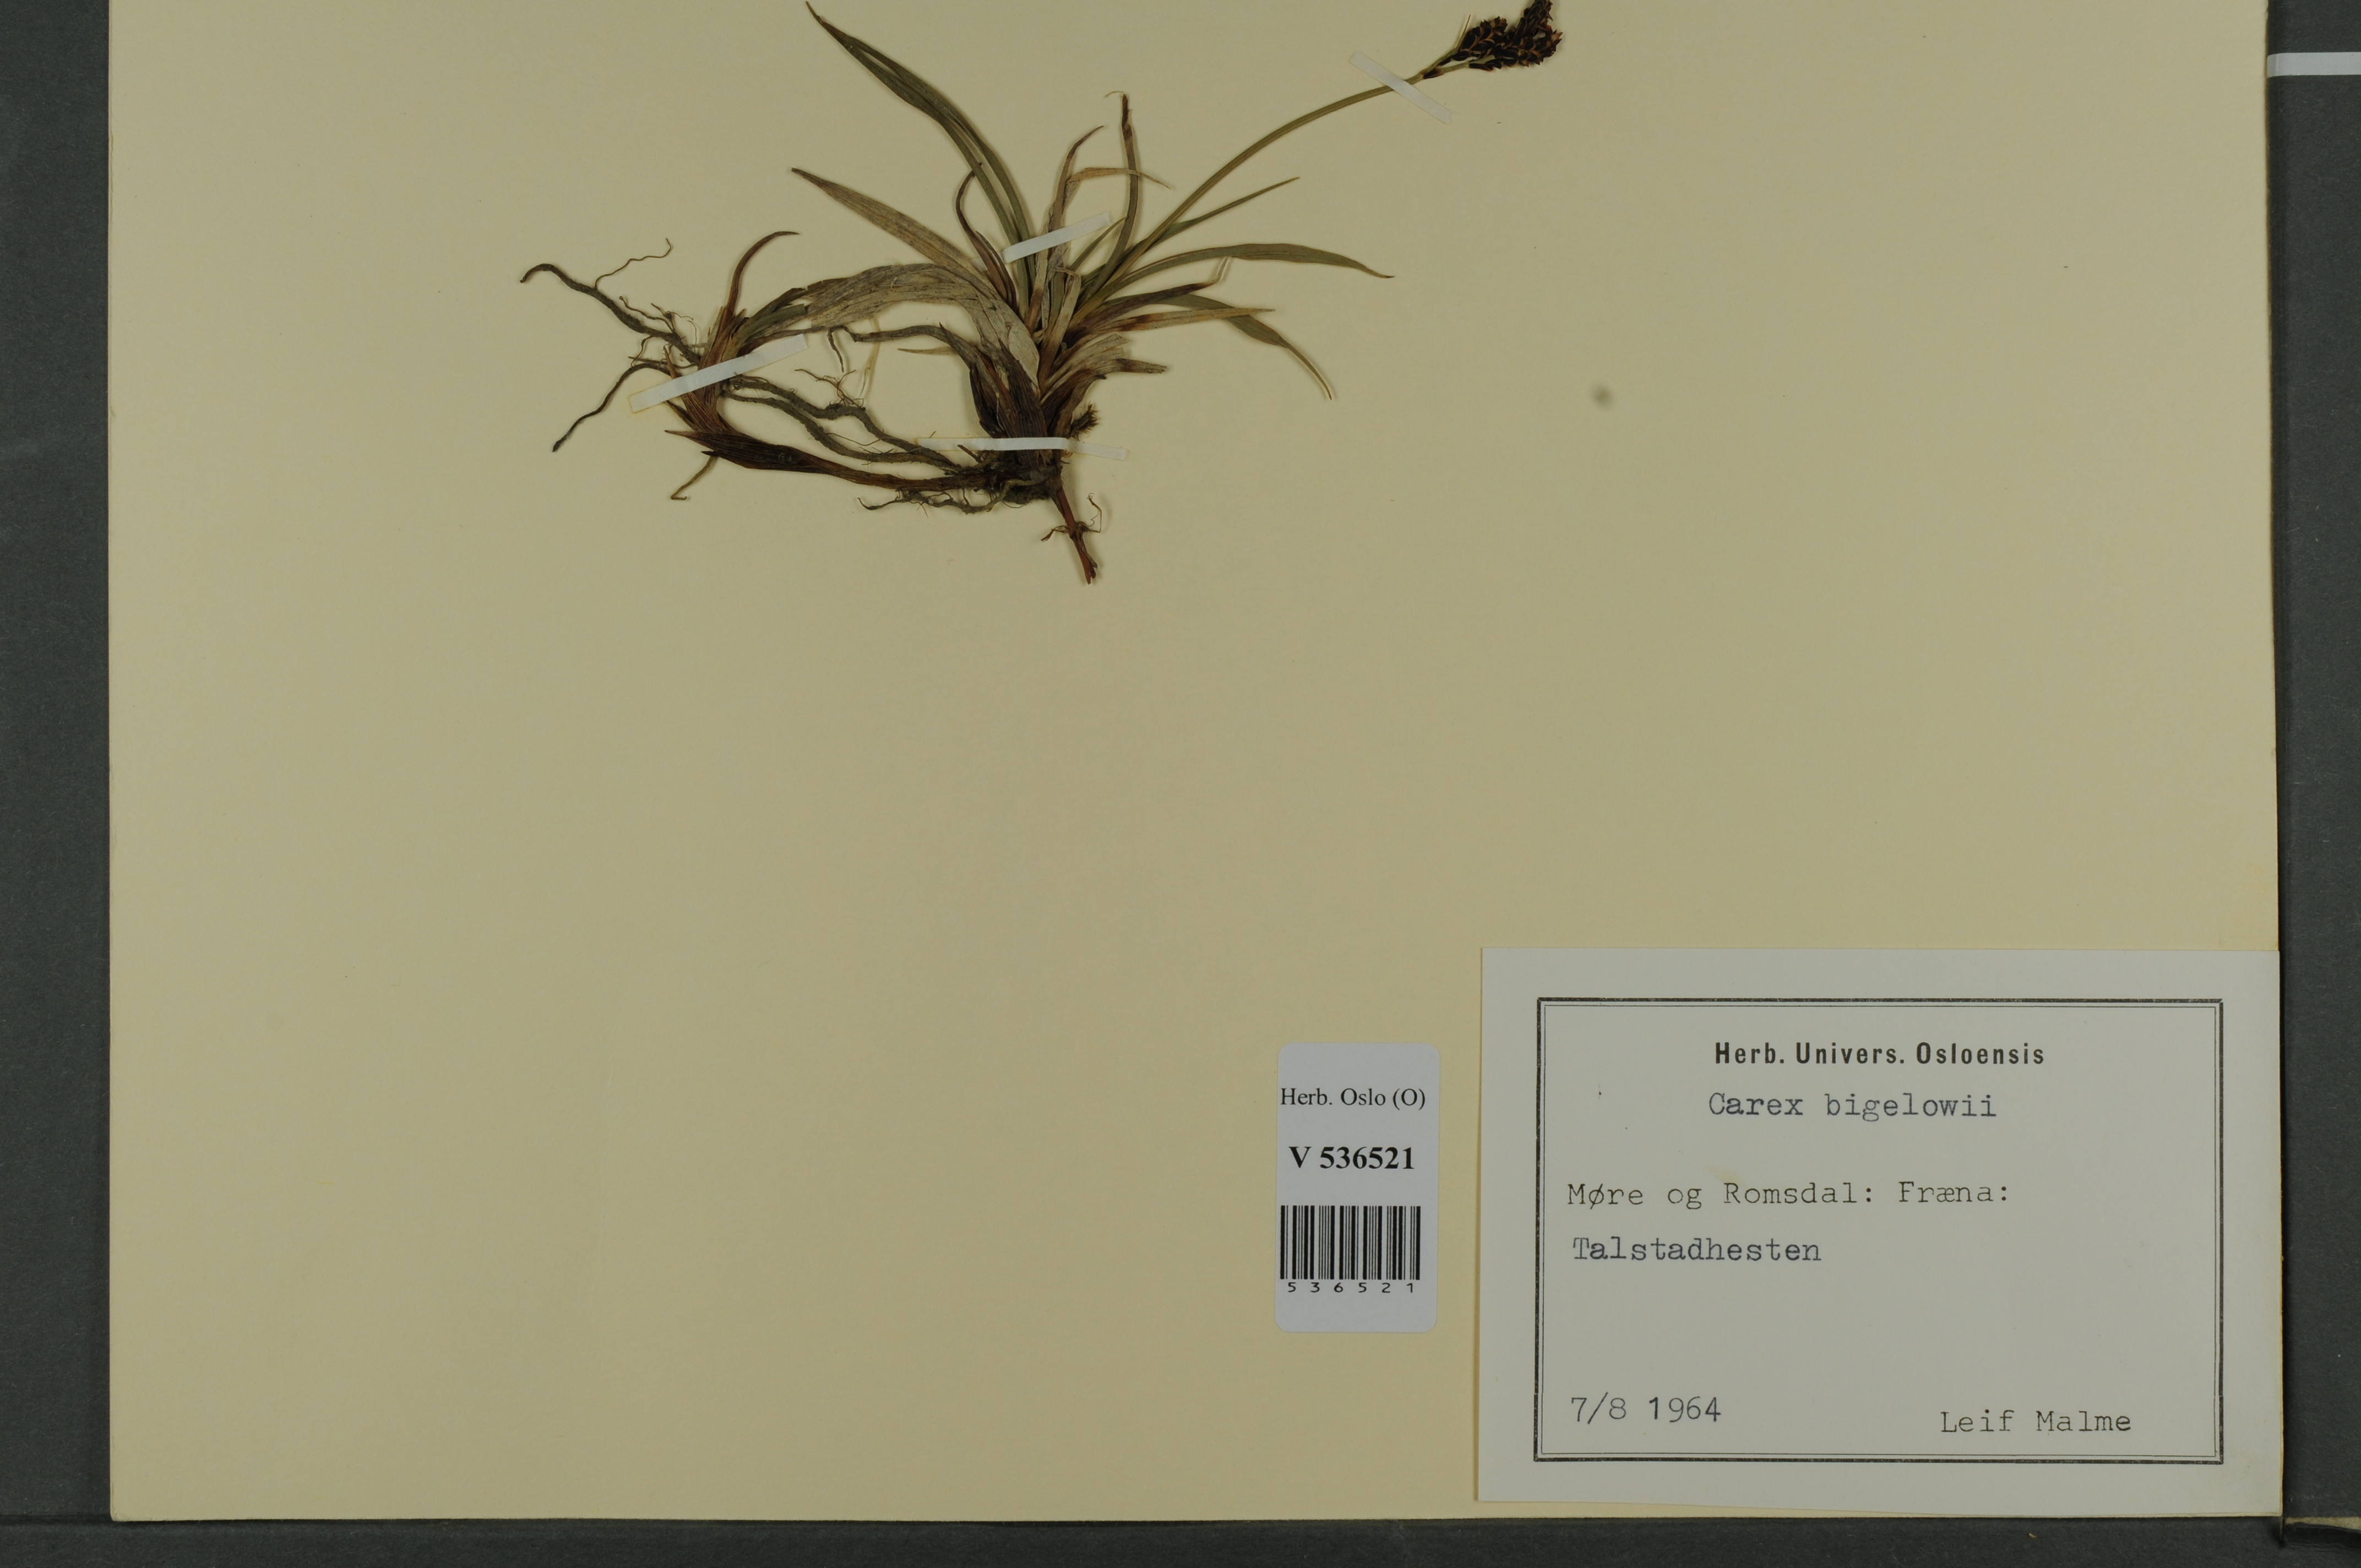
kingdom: Plantae
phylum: Tracheophyta
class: Liliopsida
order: Poales
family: Cyperaceae
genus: Carex
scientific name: Carex bigelowii
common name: Stiff sedge
